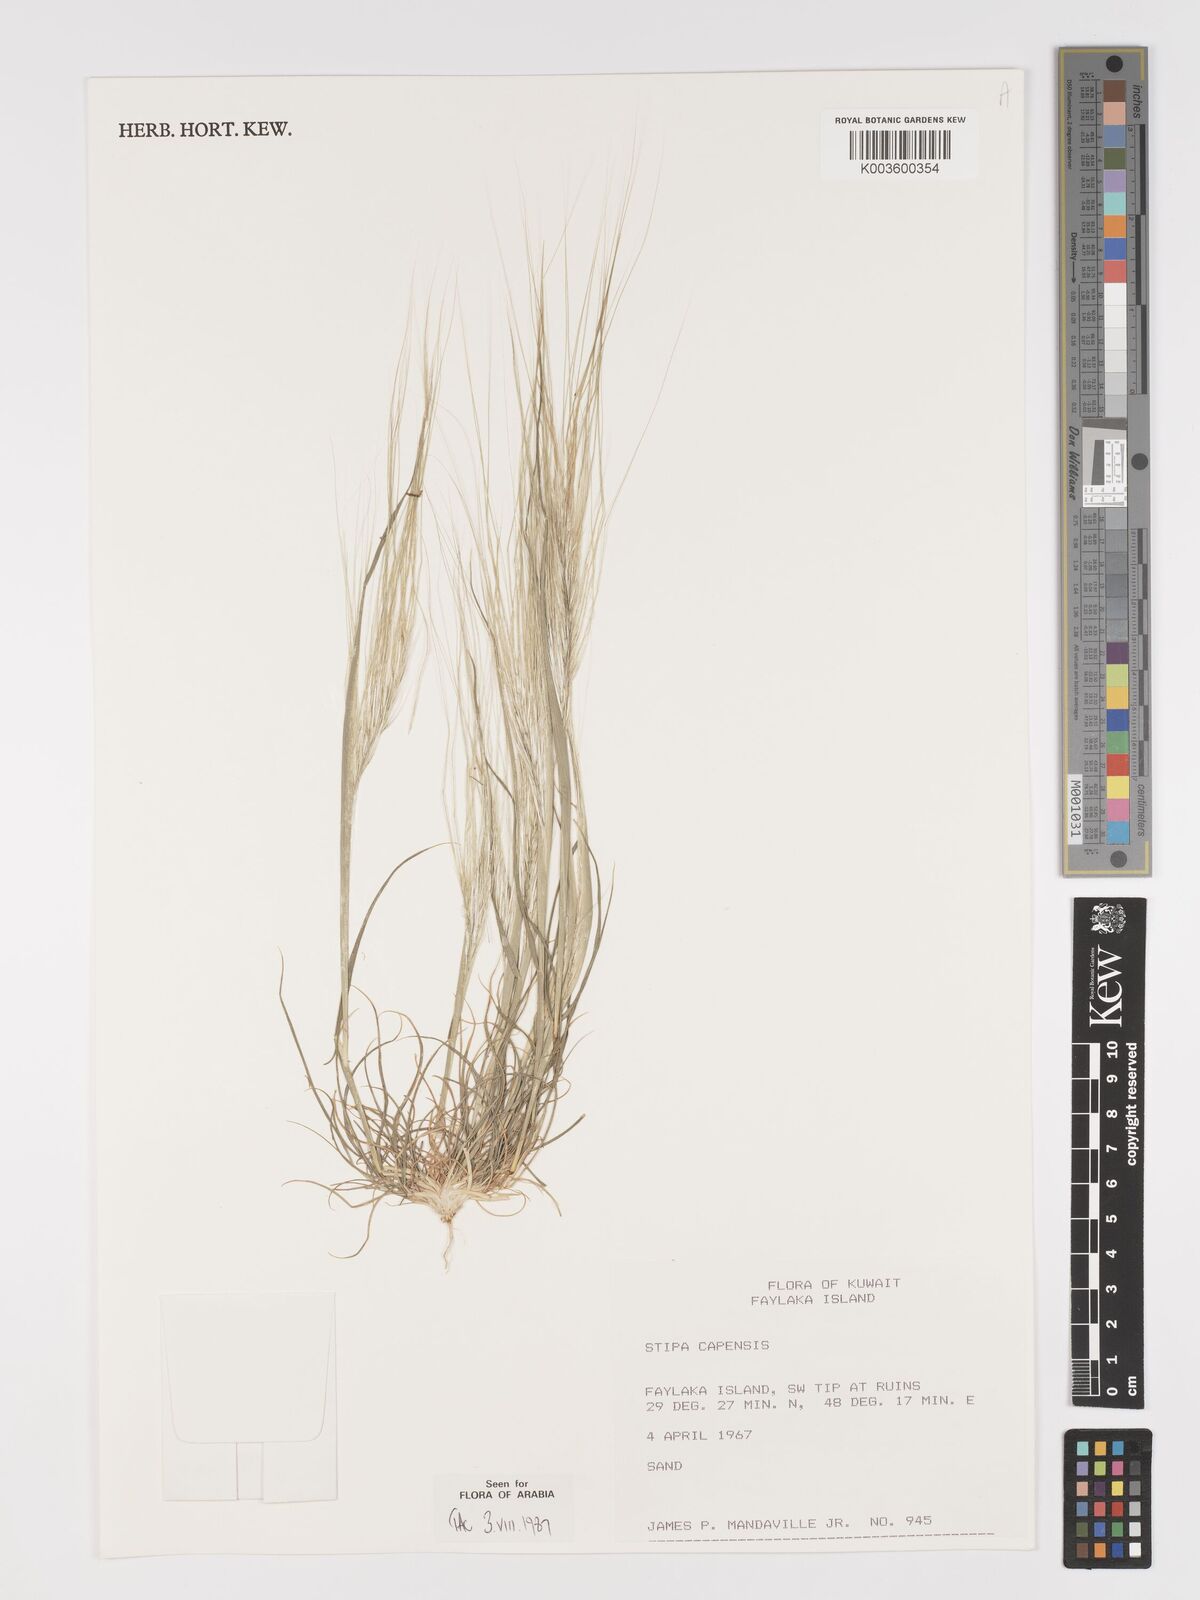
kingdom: Plantae
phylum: Tracheophyta
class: Liliopsida
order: Poales
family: Poaceae
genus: Stipellula
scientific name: Stipellula capensis
